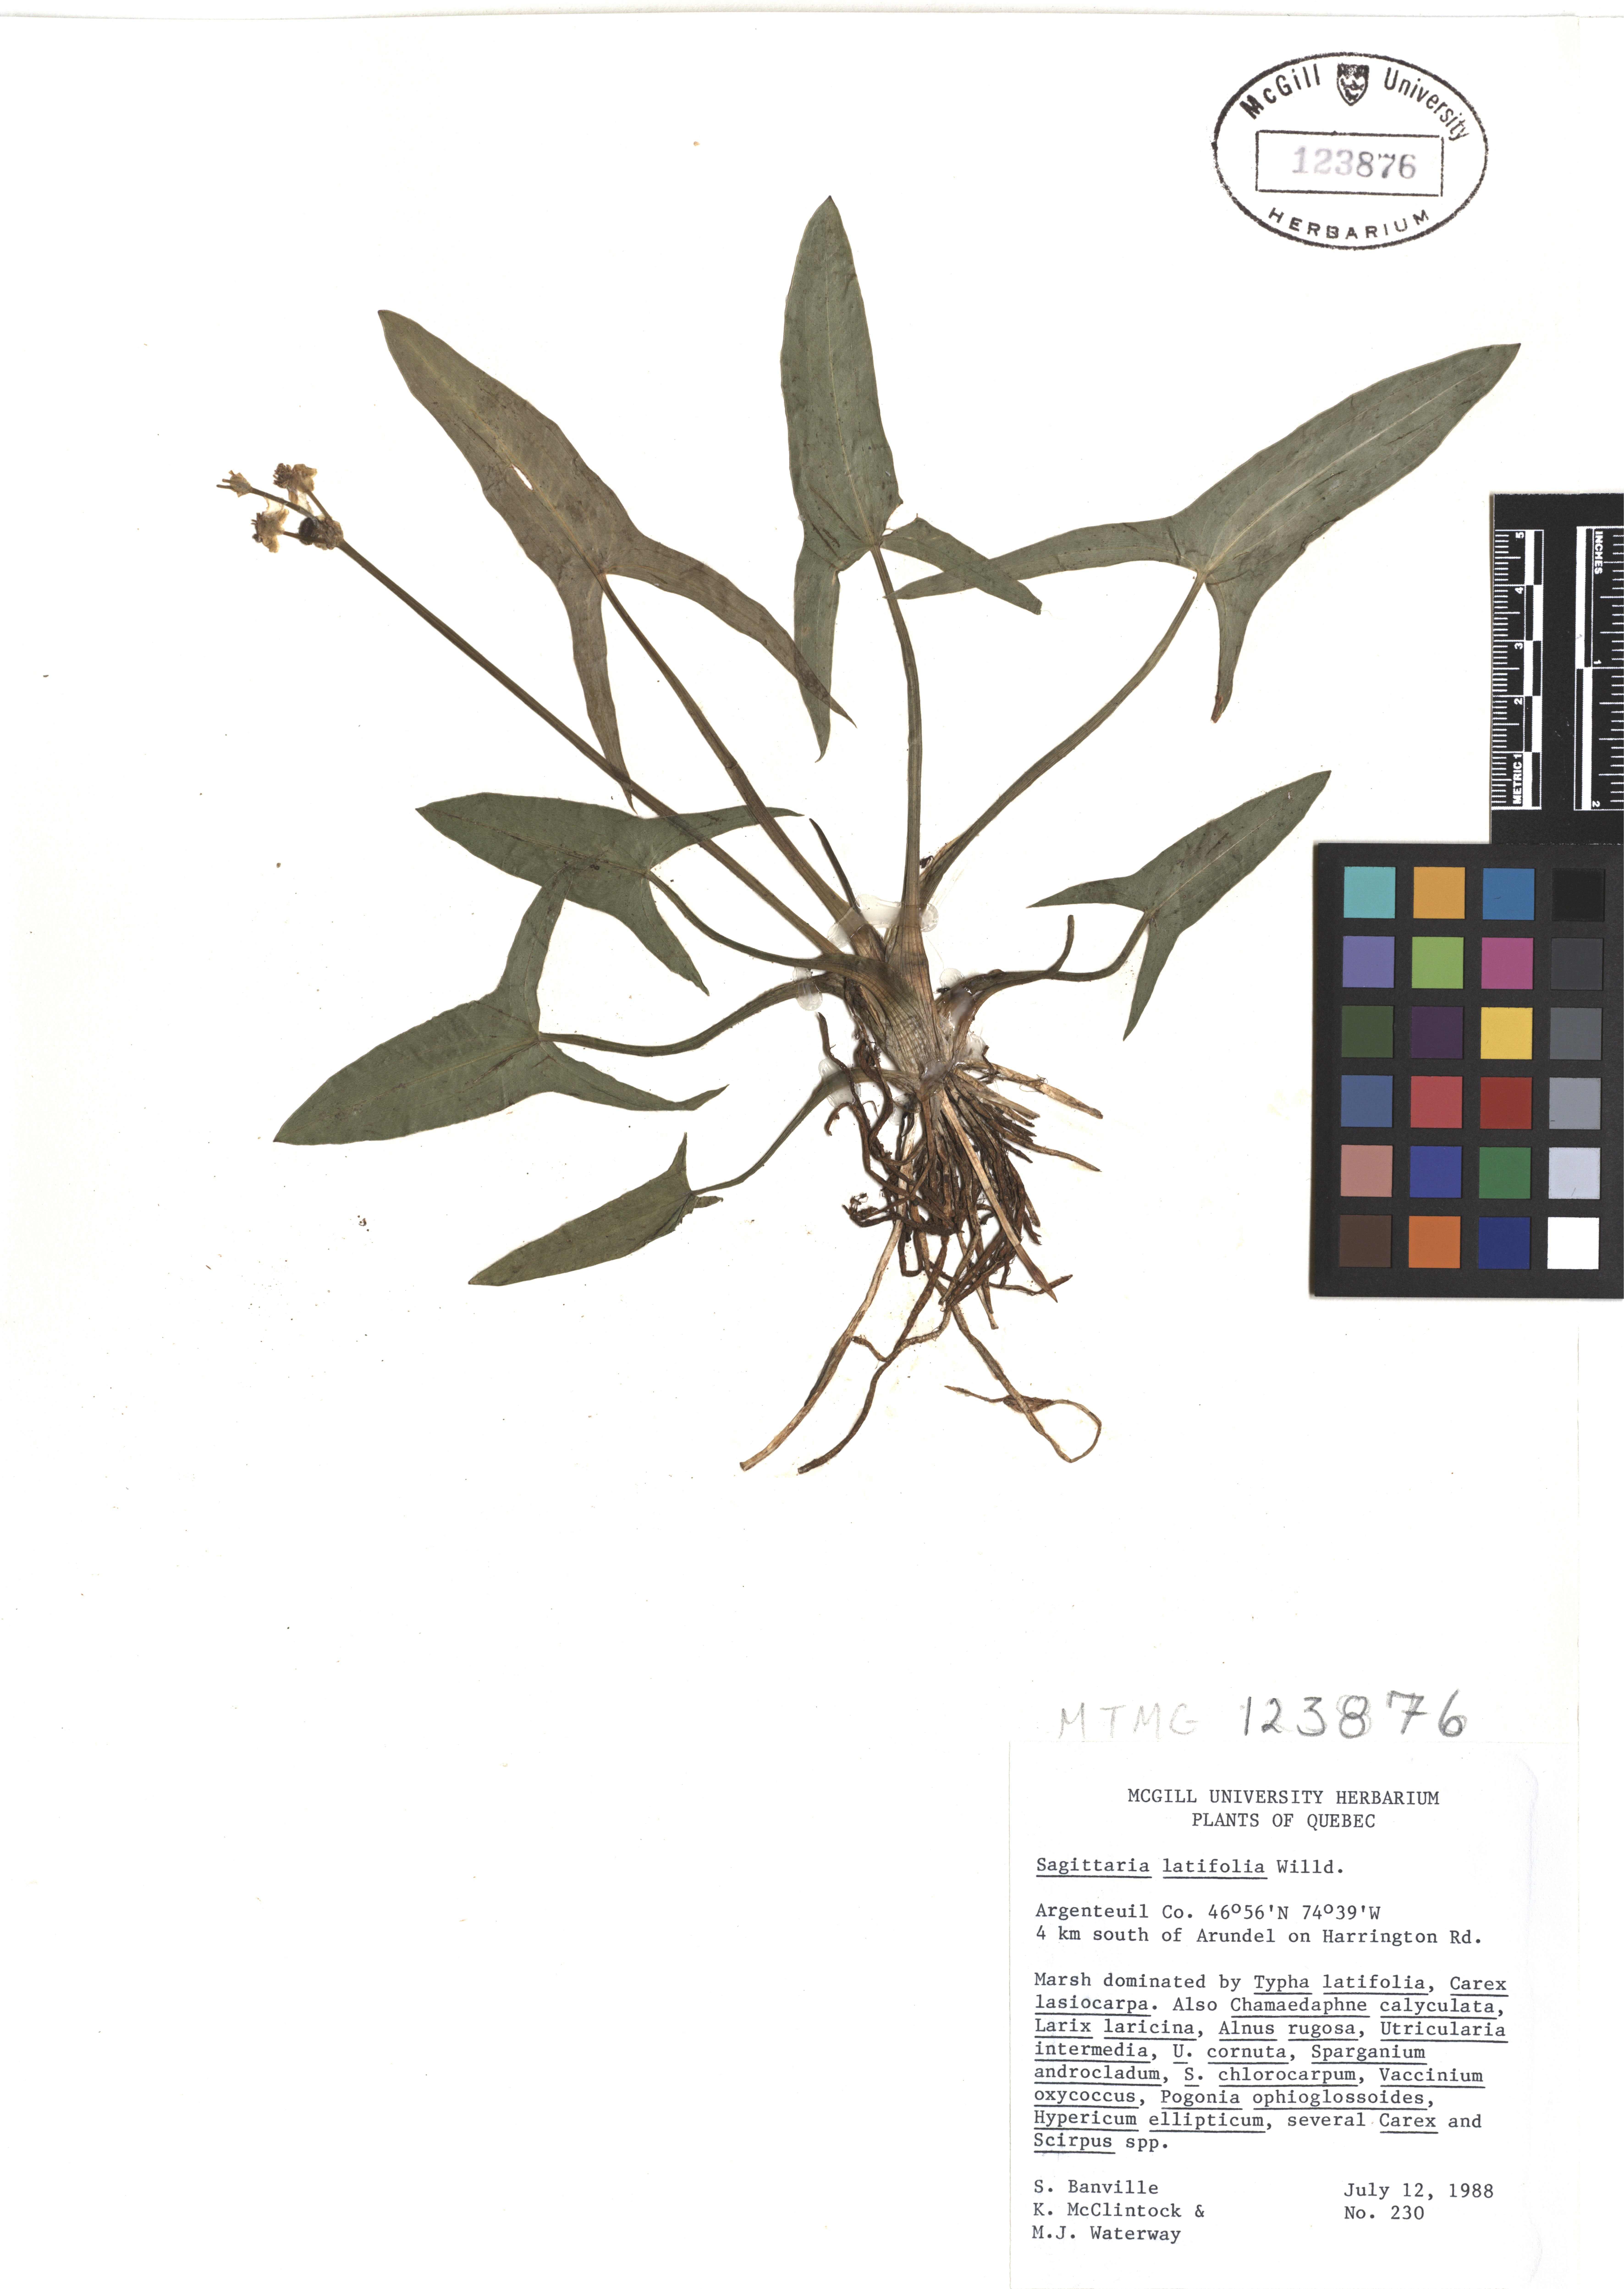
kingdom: Plantae
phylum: Tracheophyta
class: Liliopsida
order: Alismatales
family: Alismataceae
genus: Sagittaria
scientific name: Sagittaria latifolia
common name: Duck-potato
